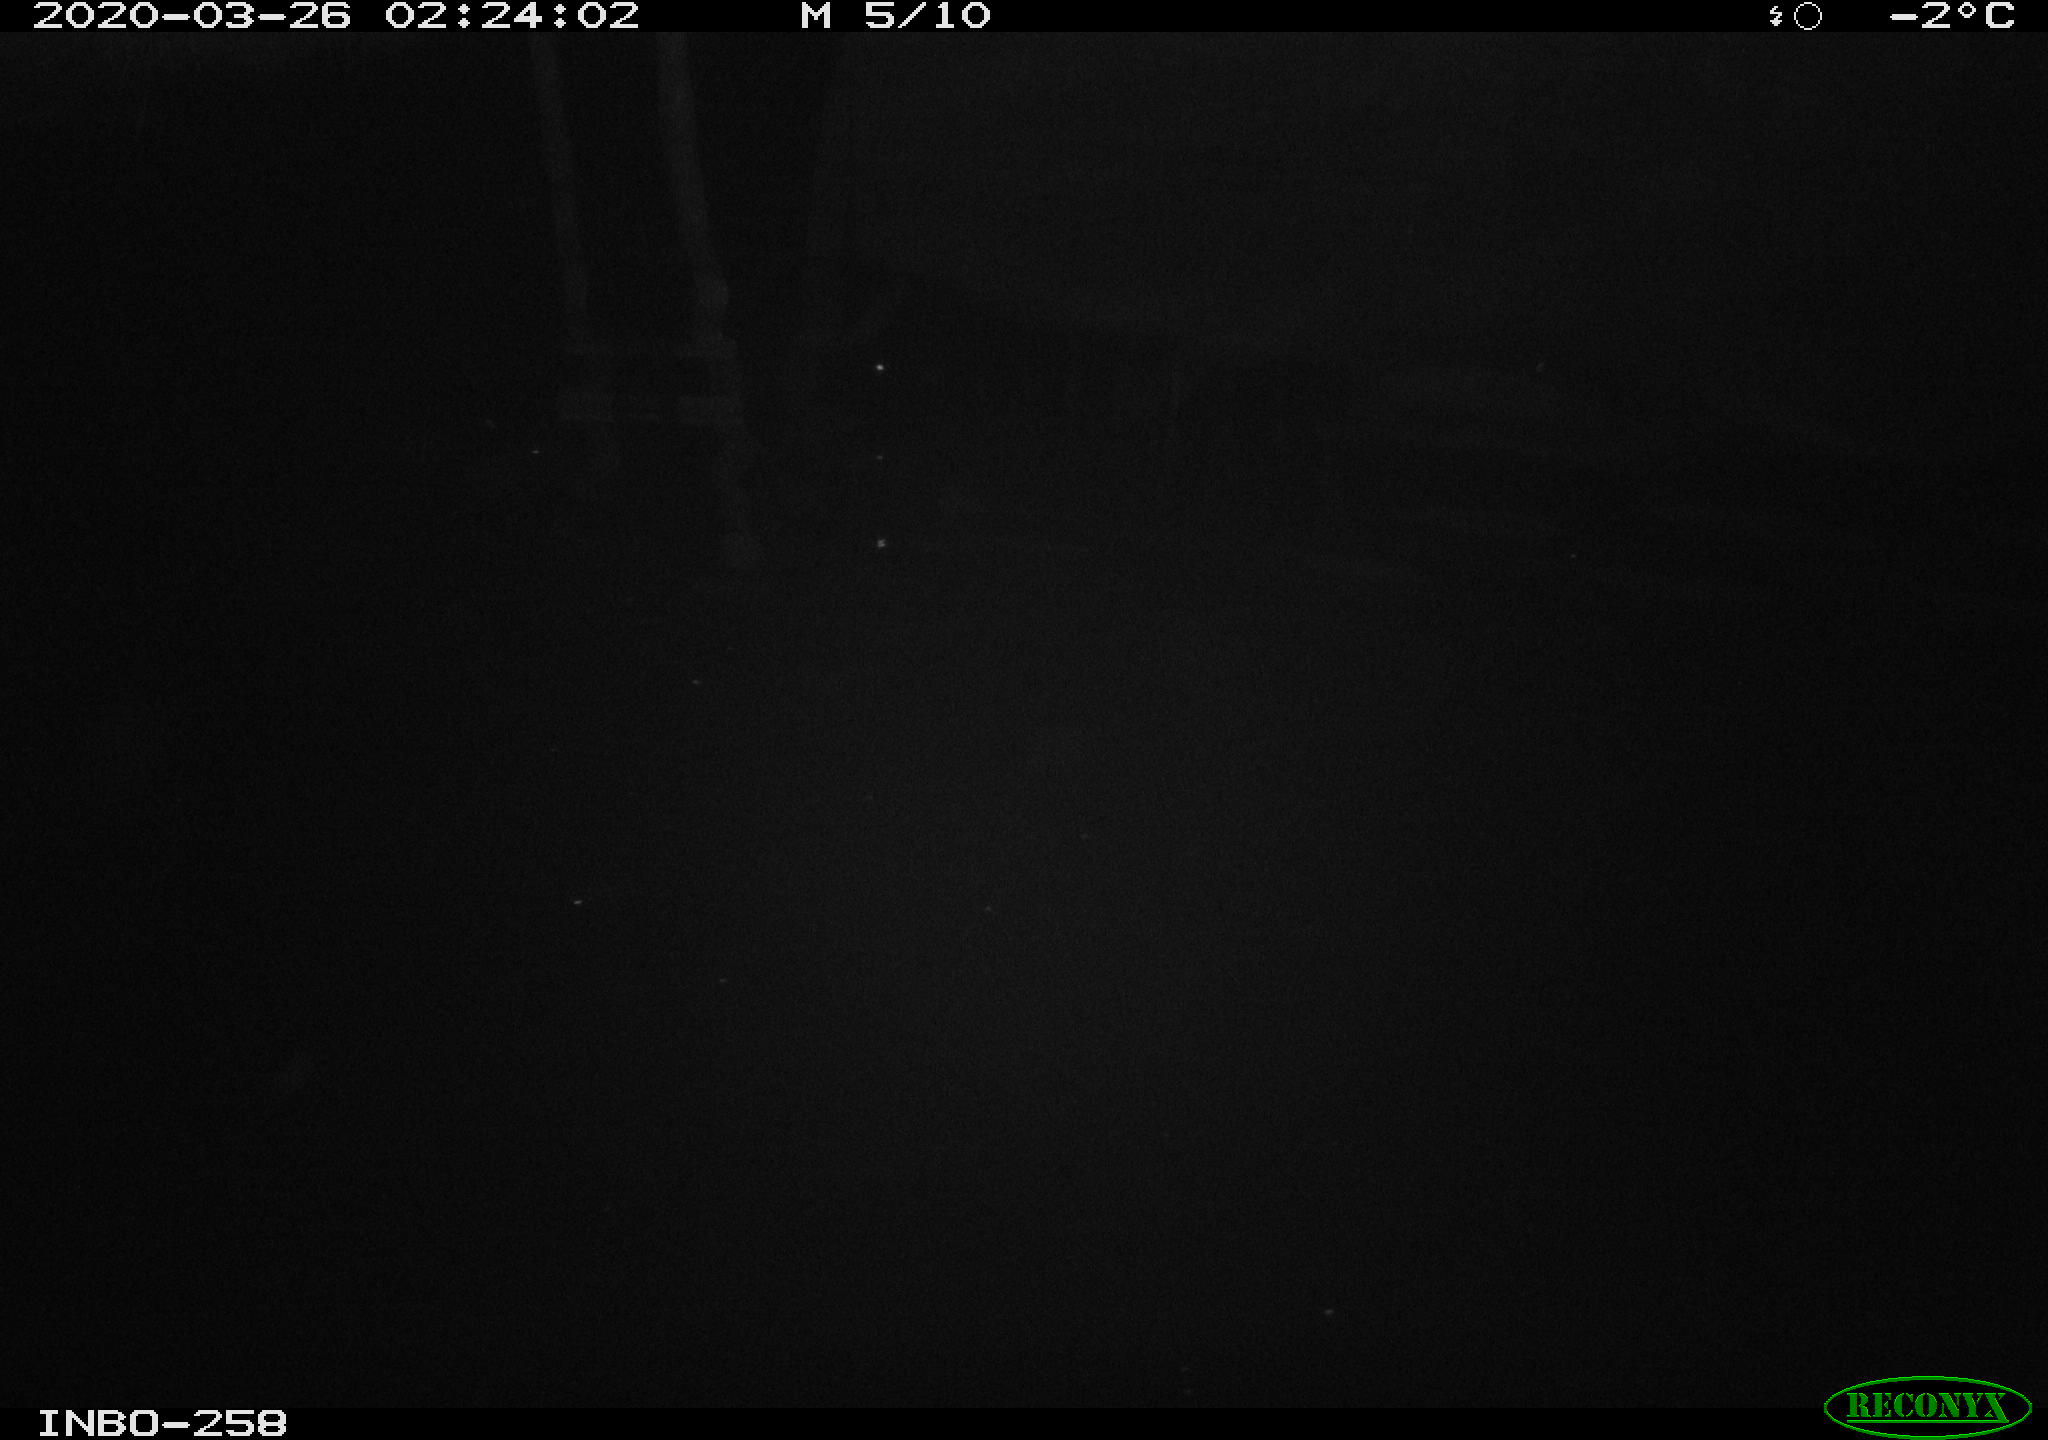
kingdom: Animalia
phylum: Chordata
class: Aves
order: Anseriformes
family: Anatidae
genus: Anas
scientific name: Anas platyrhynchos
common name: Mallard
